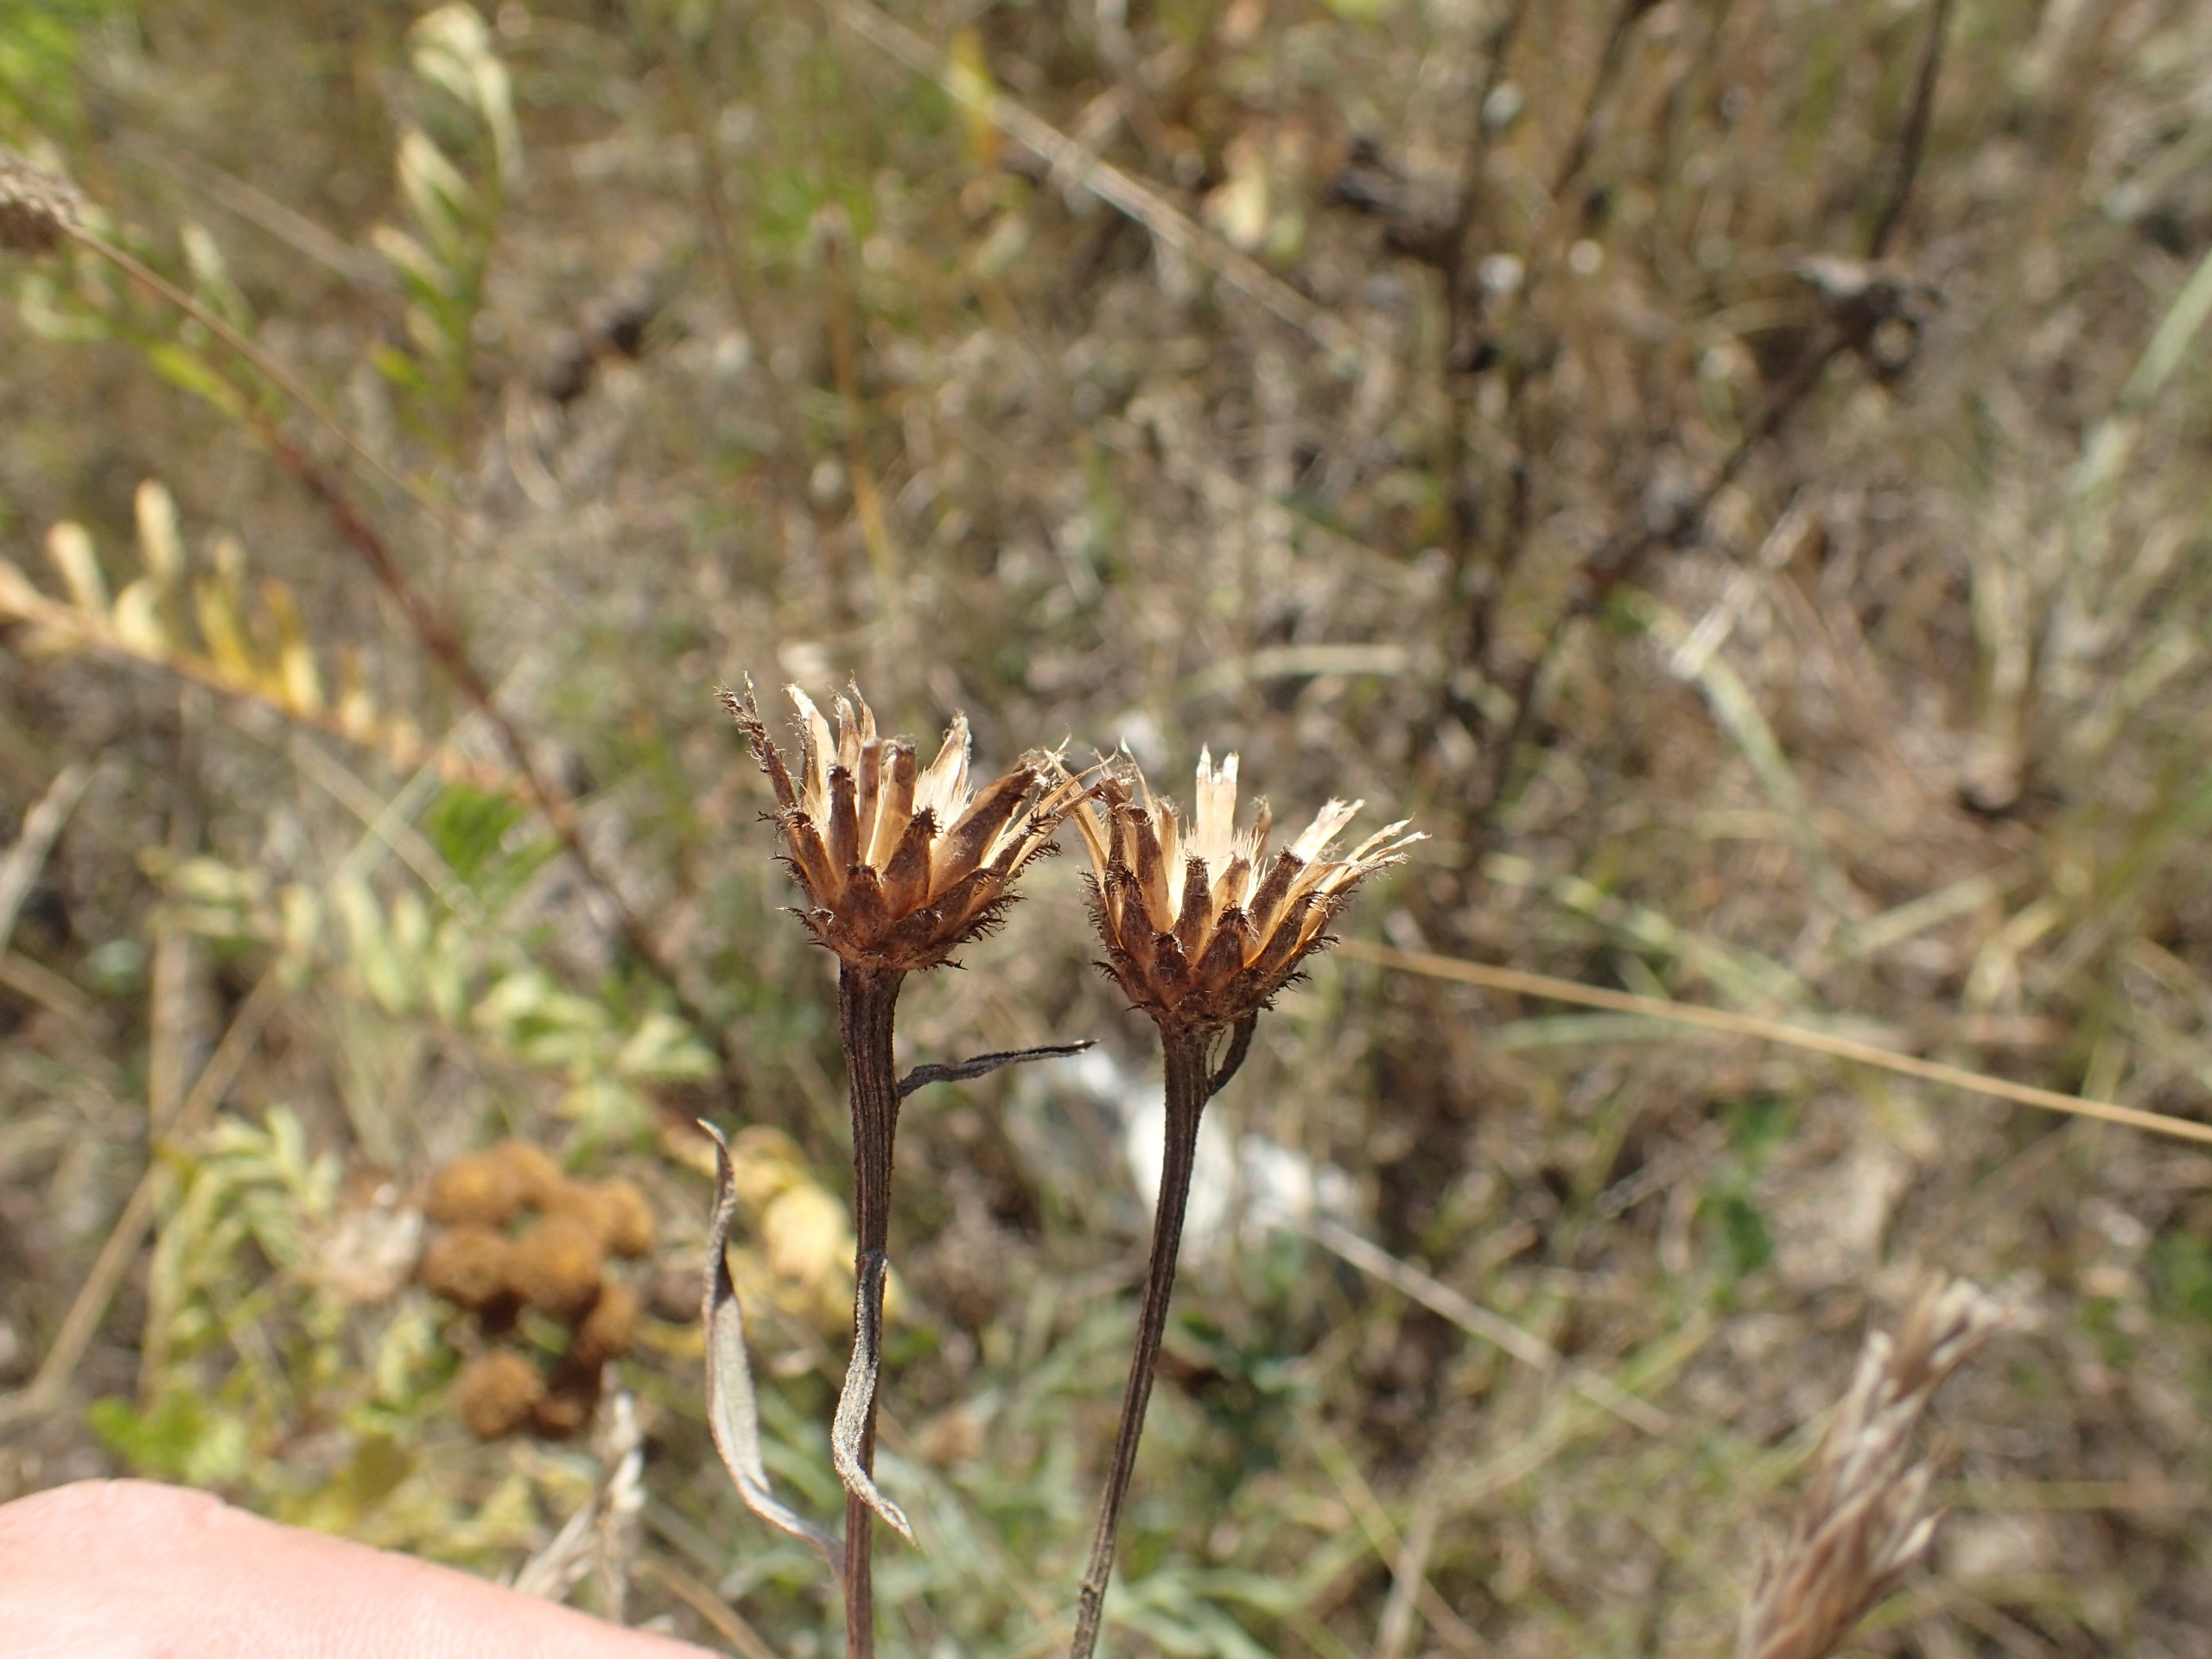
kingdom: Plantae
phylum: Tracheophyta
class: Magnoliopsida
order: Asterales
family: Asteraceae
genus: Centaurea
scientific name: Centaurea stoebe
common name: Mangegrenet knopurt
